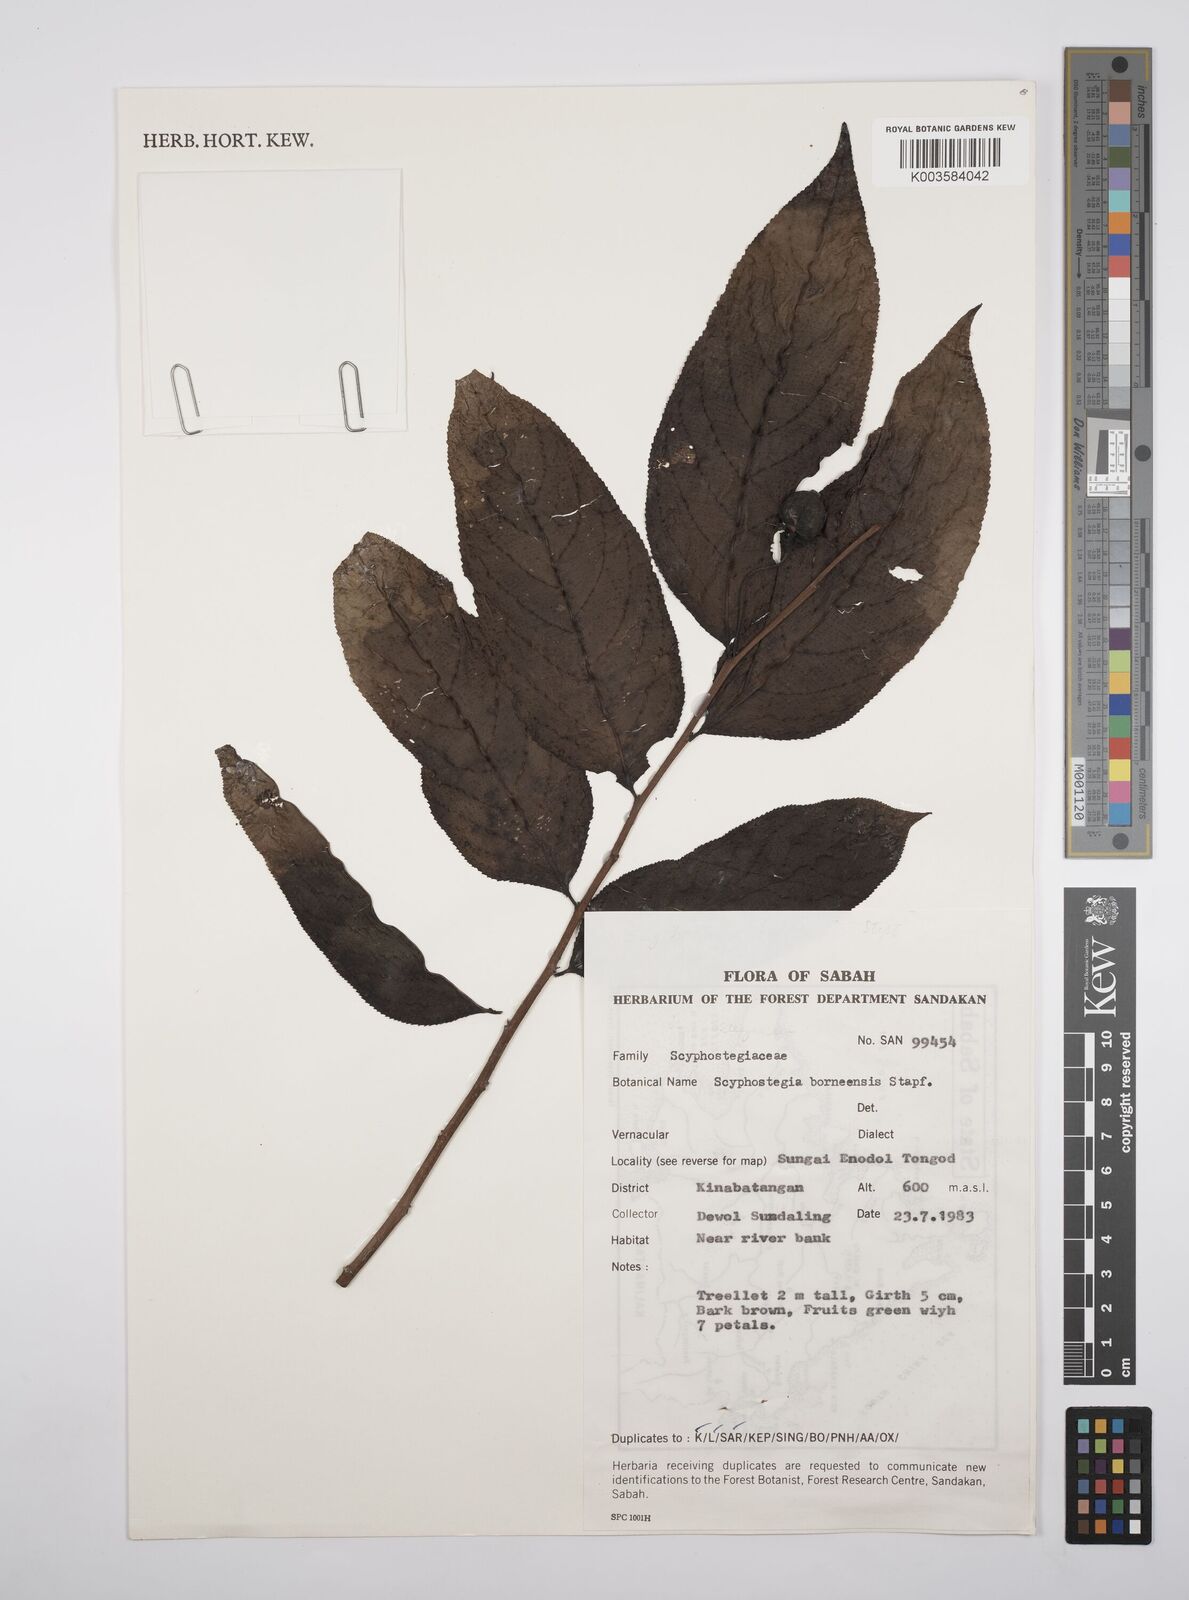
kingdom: Plantae
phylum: Tracheophyta
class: Magnoliopsida
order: Malpighiales
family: Salicaceae
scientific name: Salicaceae
